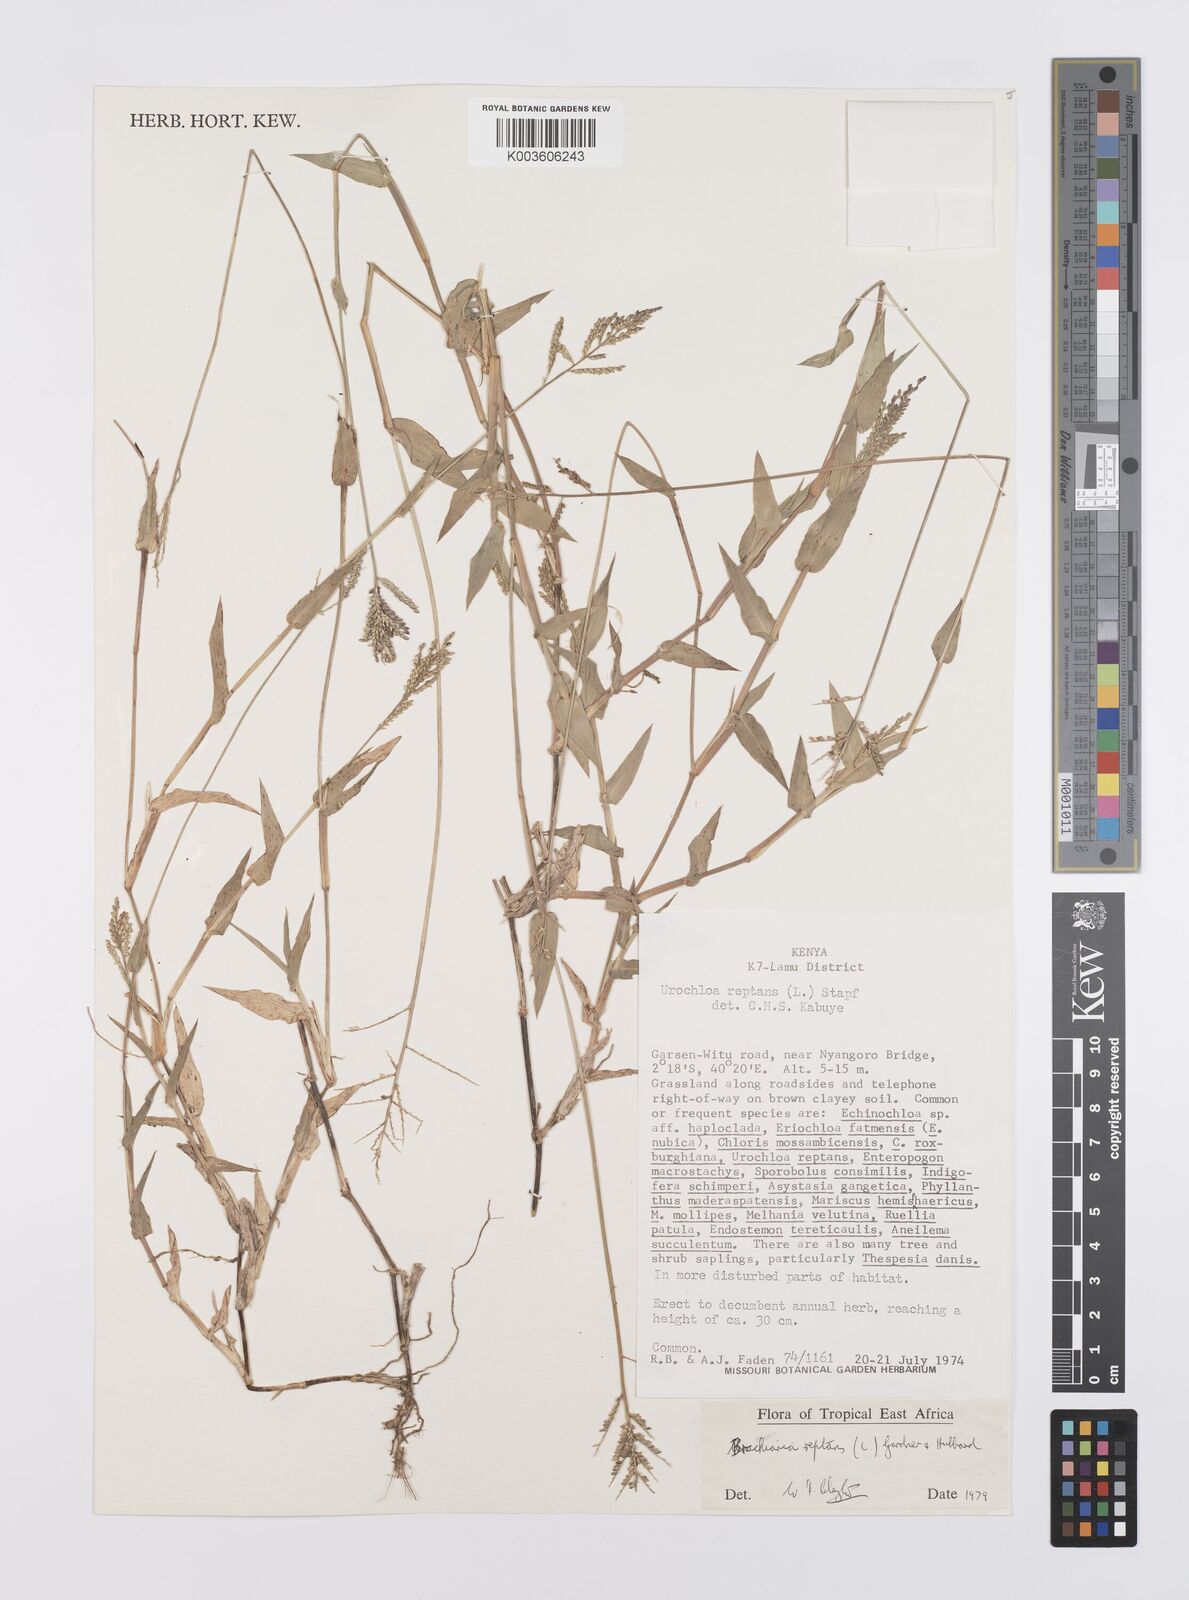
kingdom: Plantae
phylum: Tracheophyta
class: Liliopsida
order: Poales
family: Poaceae
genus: Urochloa
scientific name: Urochloa reptans
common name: Sprawling signalgrass
